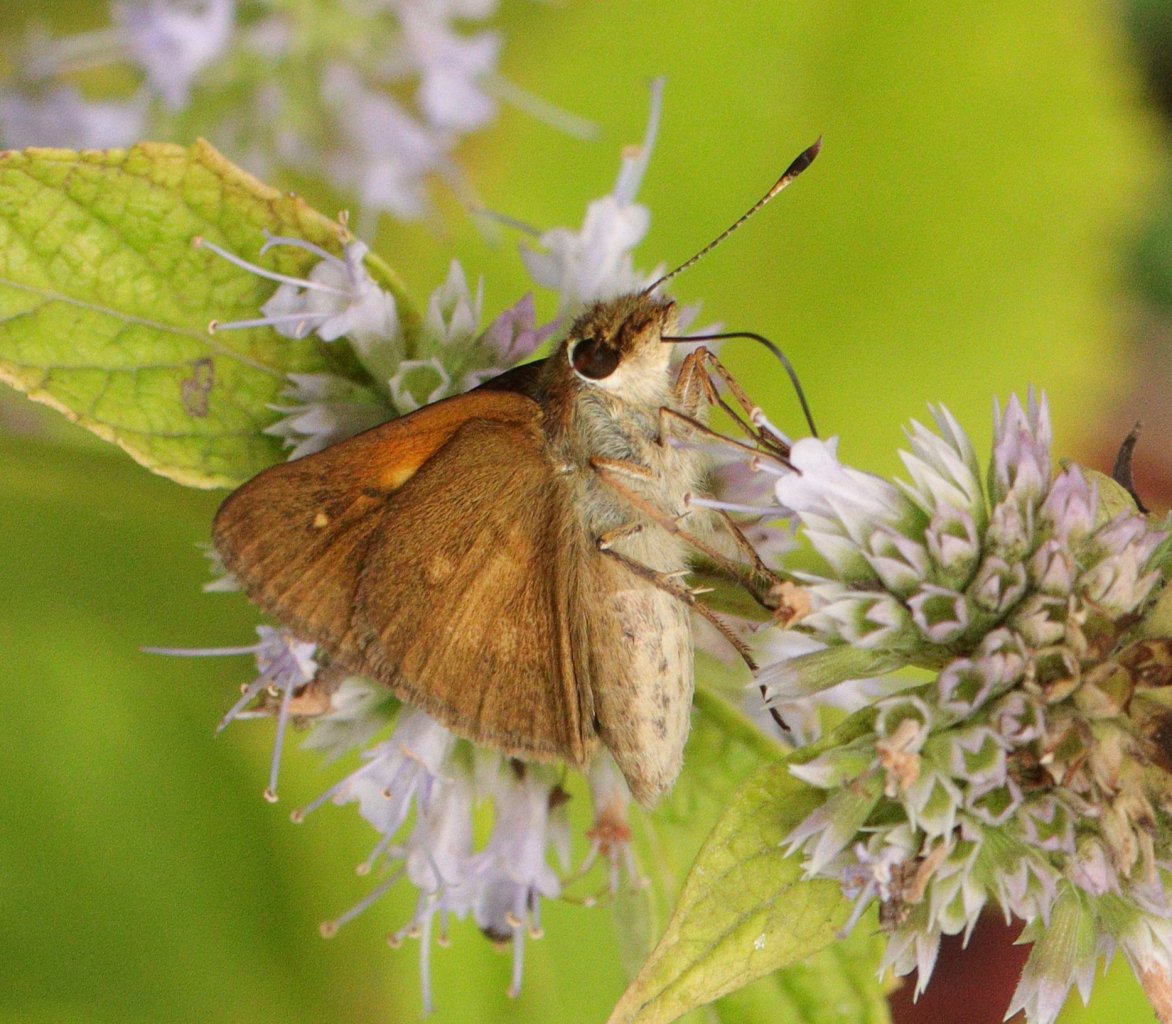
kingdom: Animalia
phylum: Arthropoda
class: Insecta
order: Lepidoptera
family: Hesperiidae
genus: Poanes
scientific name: Poanes viator
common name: Broad-winged Skipper
